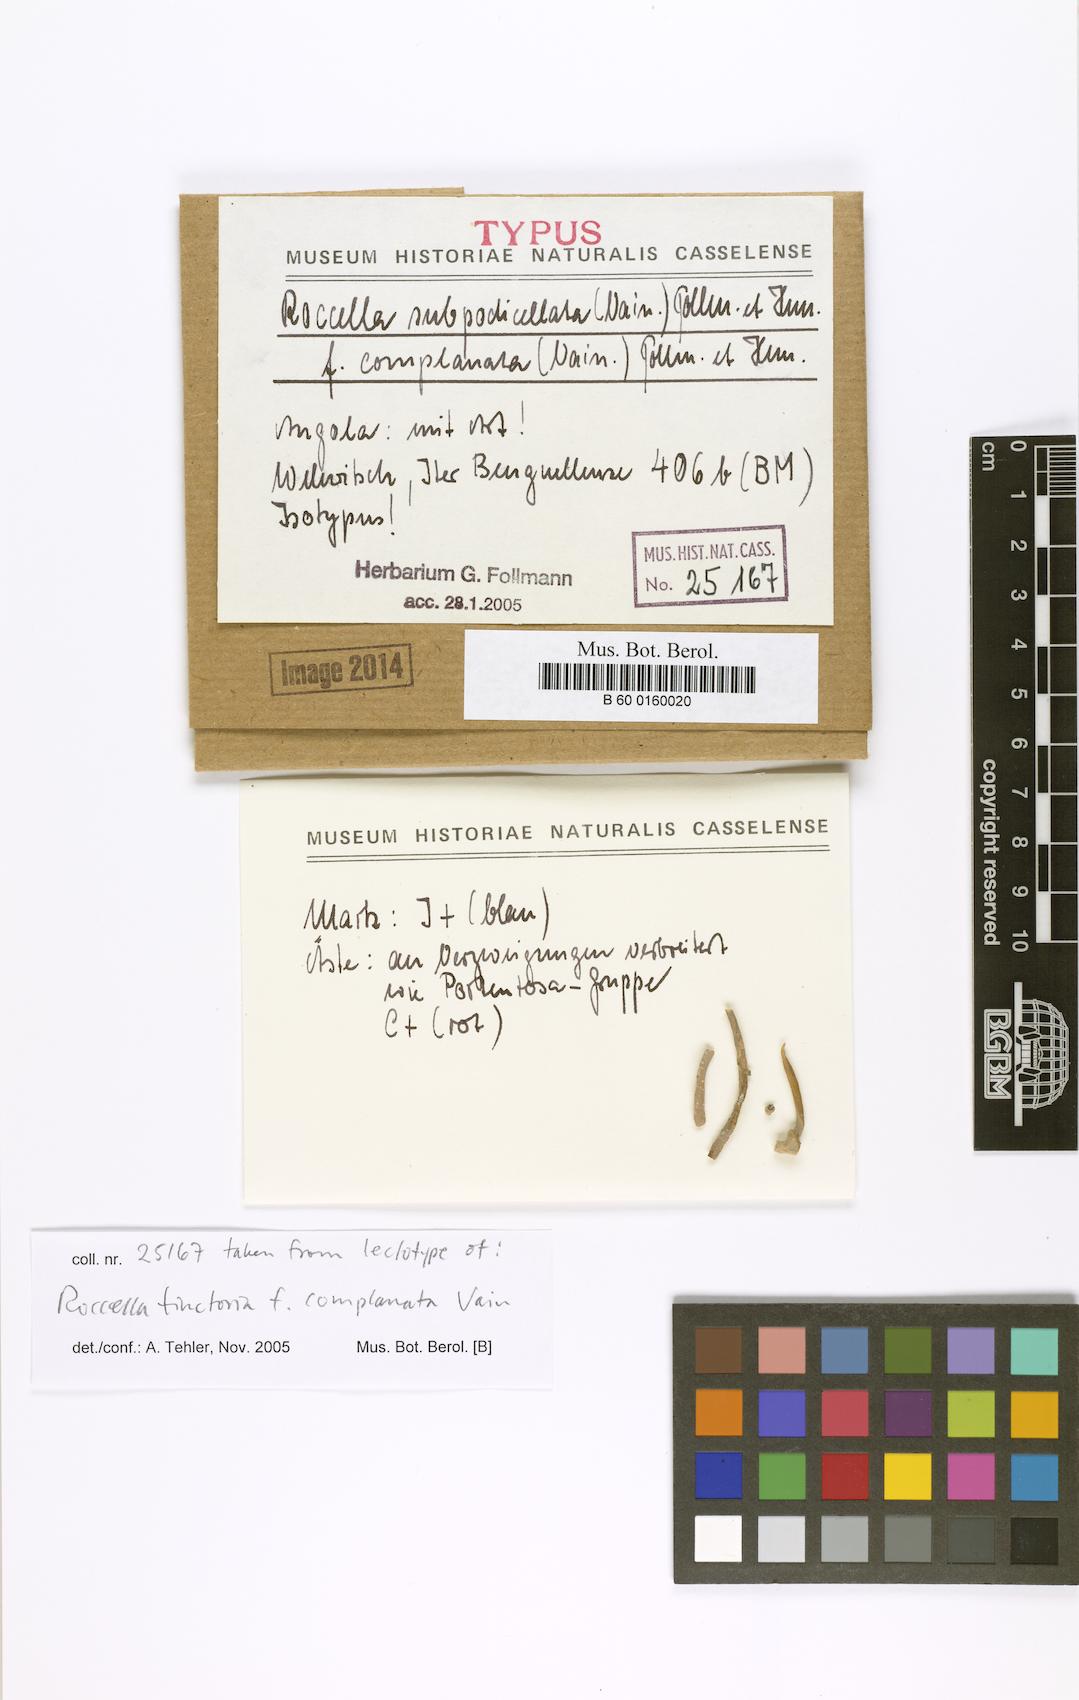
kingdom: Fungi
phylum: Ascomycota
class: Arthoniomycetes
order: Arthoniales
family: Roccellaceae
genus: Roccella
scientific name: Roccella
